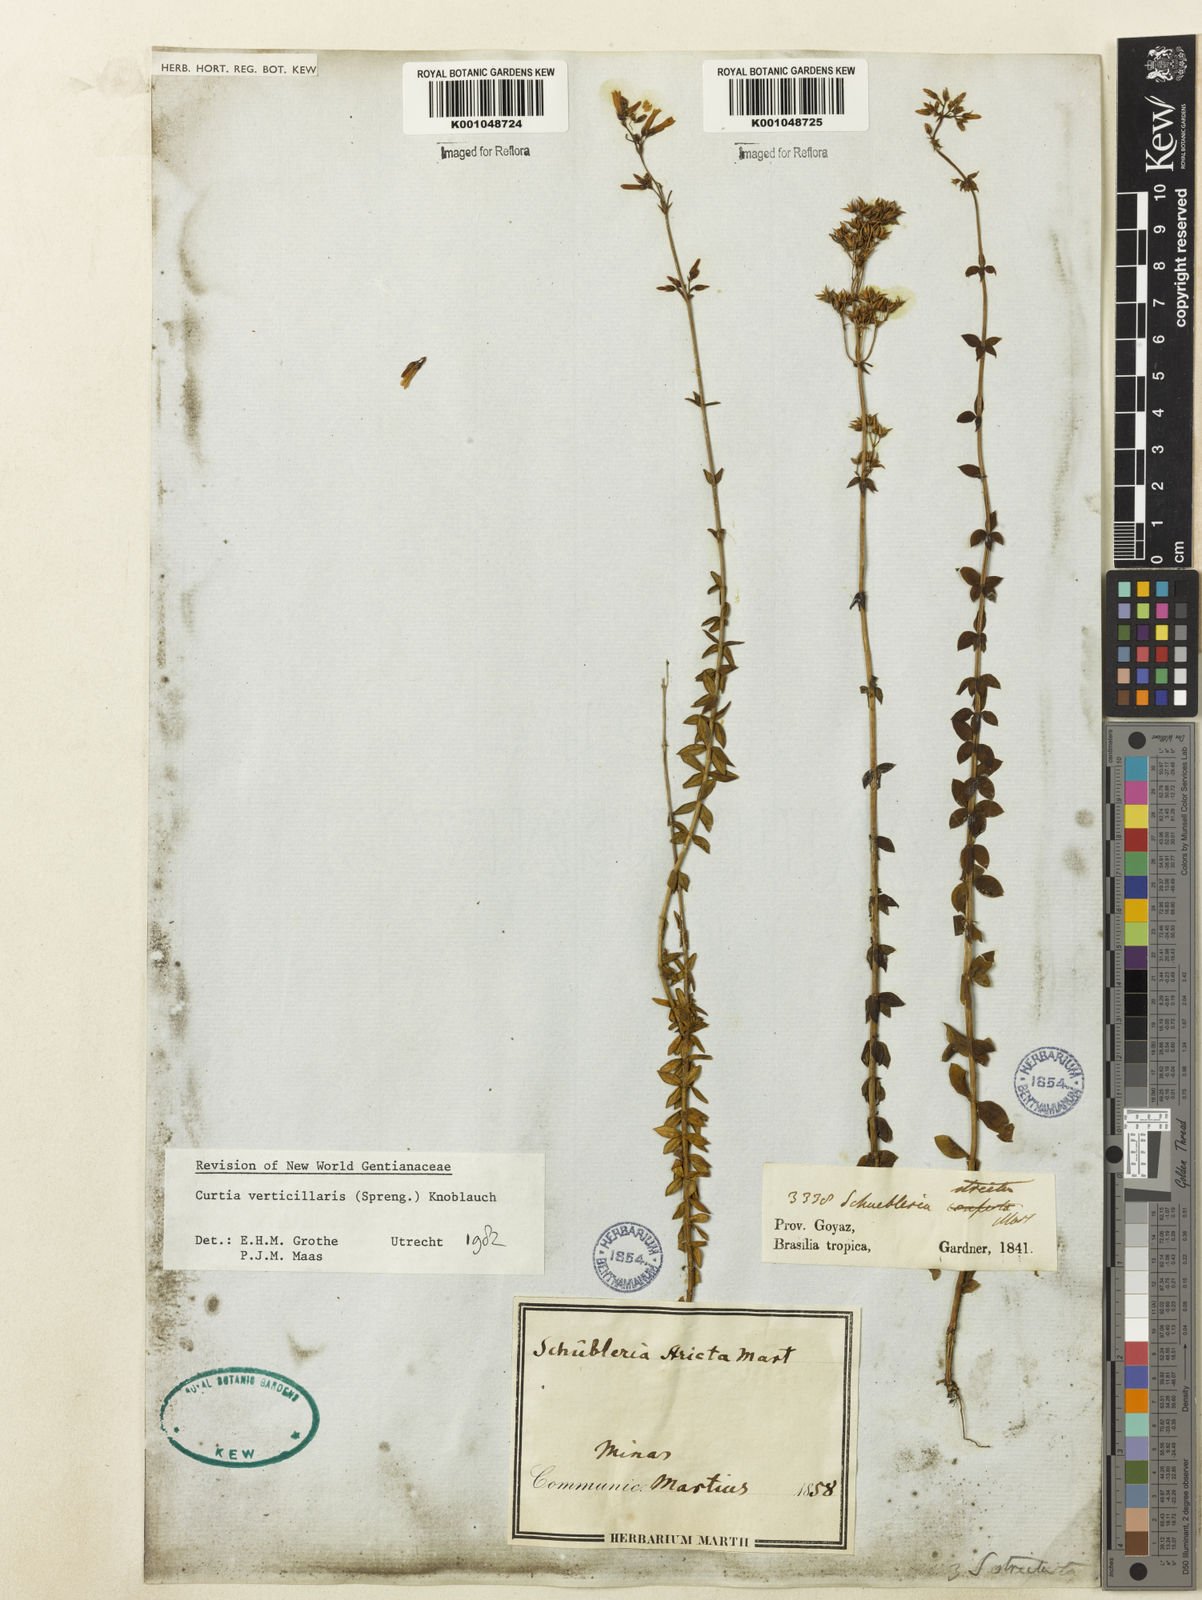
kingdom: Plantae
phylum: Tracheophyta
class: Magnoliopsida
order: Gentianales
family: Gentianaceae
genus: Curtia
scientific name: Curtia verticillaris
